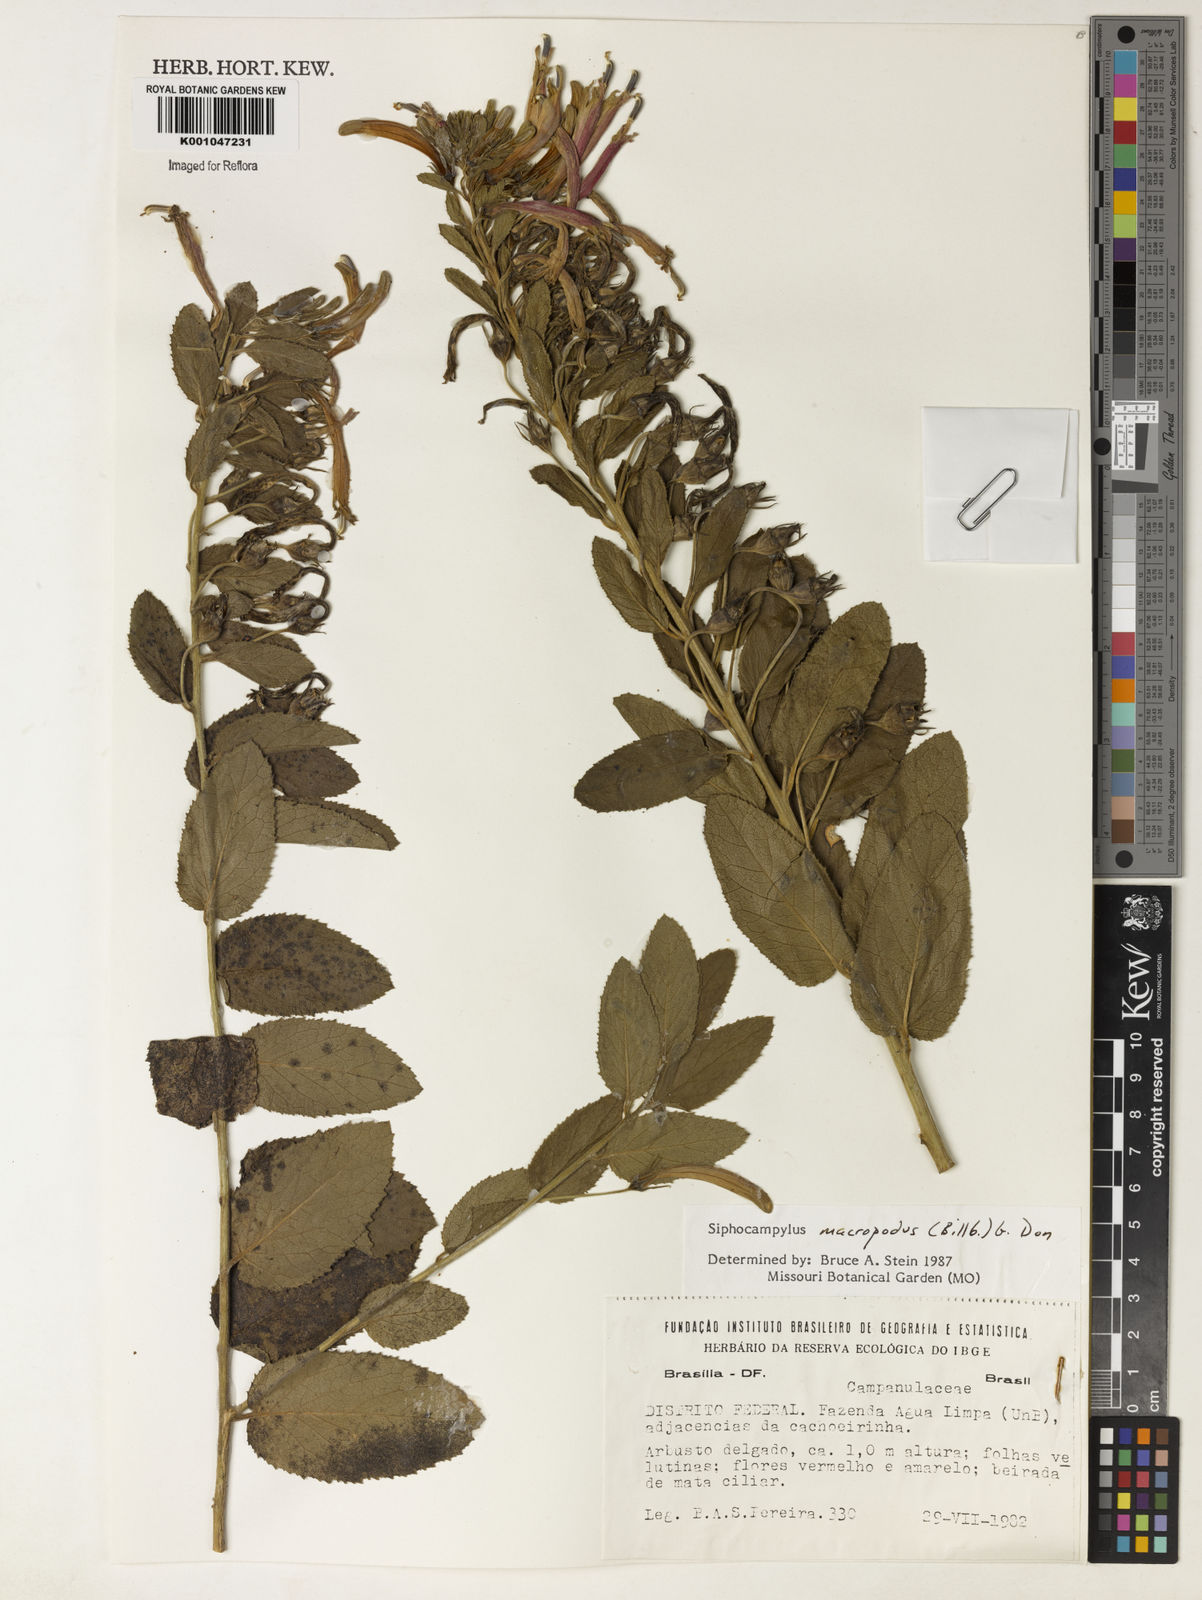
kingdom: Plantae
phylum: Tracheophyta
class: Magnoliopsida
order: Asterales
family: Campanulaceae
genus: Siphocampylus
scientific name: Siphocampylus macropodus
